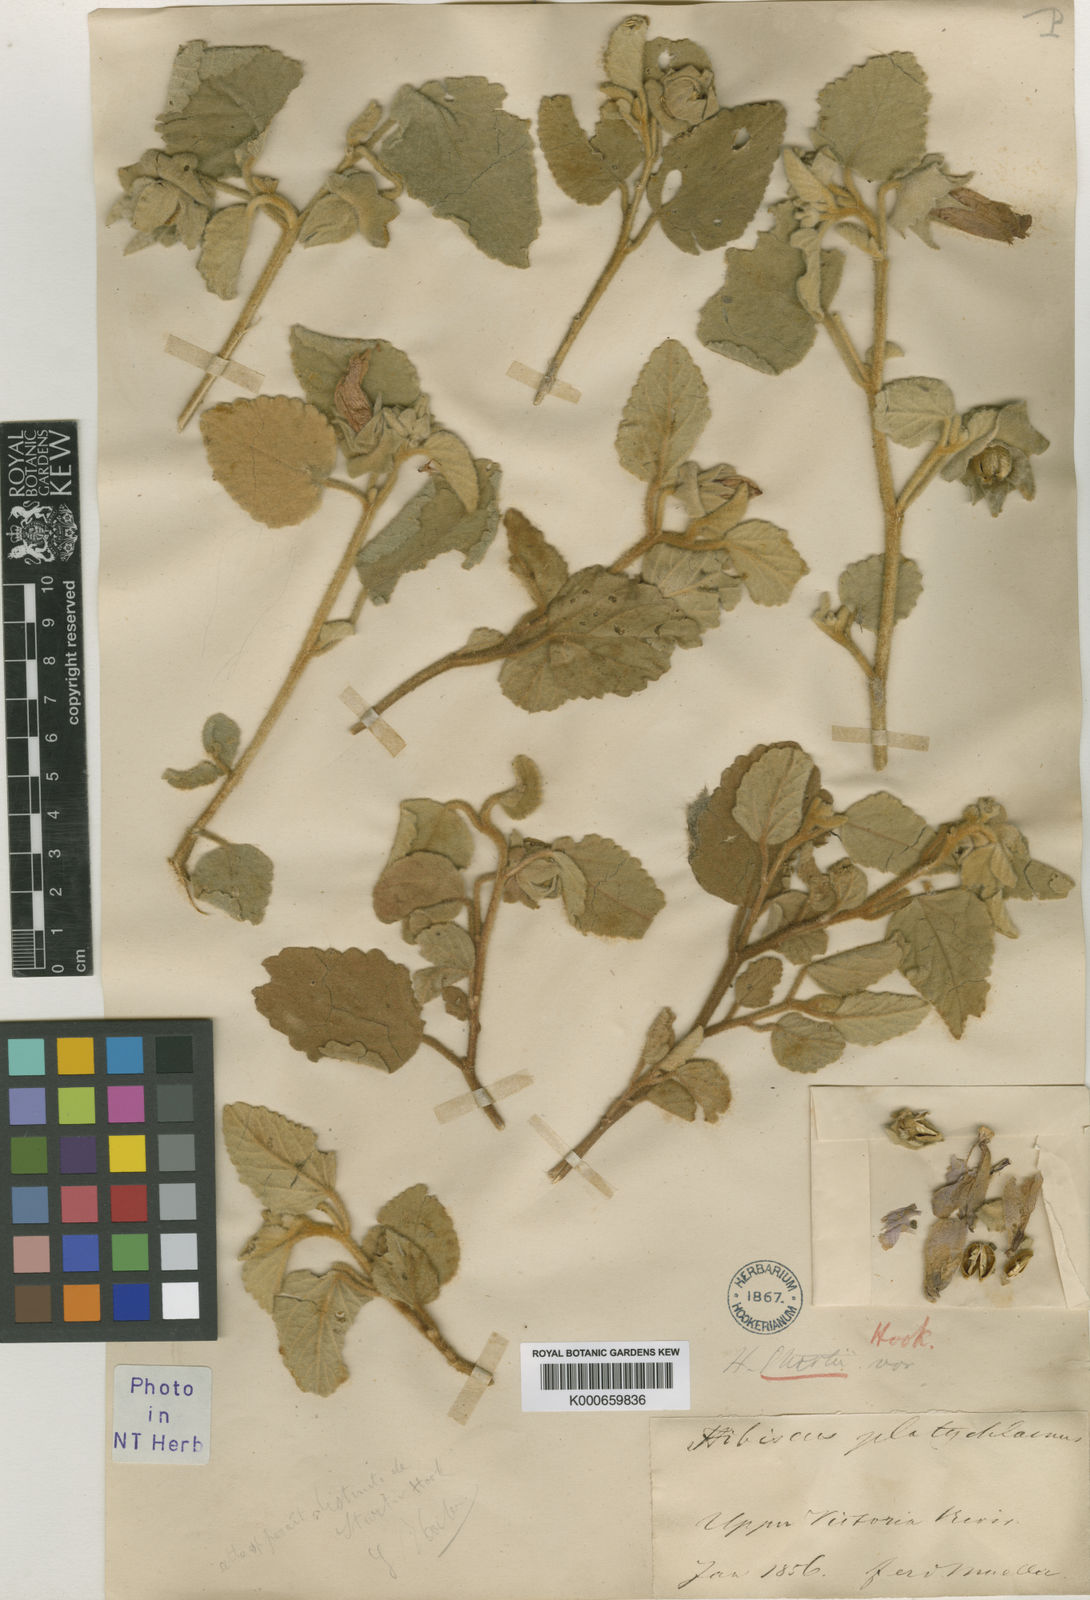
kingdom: Plantae
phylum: Tracheophyta
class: Magnoliopsida
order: Malvales
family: Malvaceae
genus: Hibiscus
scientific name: Hibiscus sturtii
